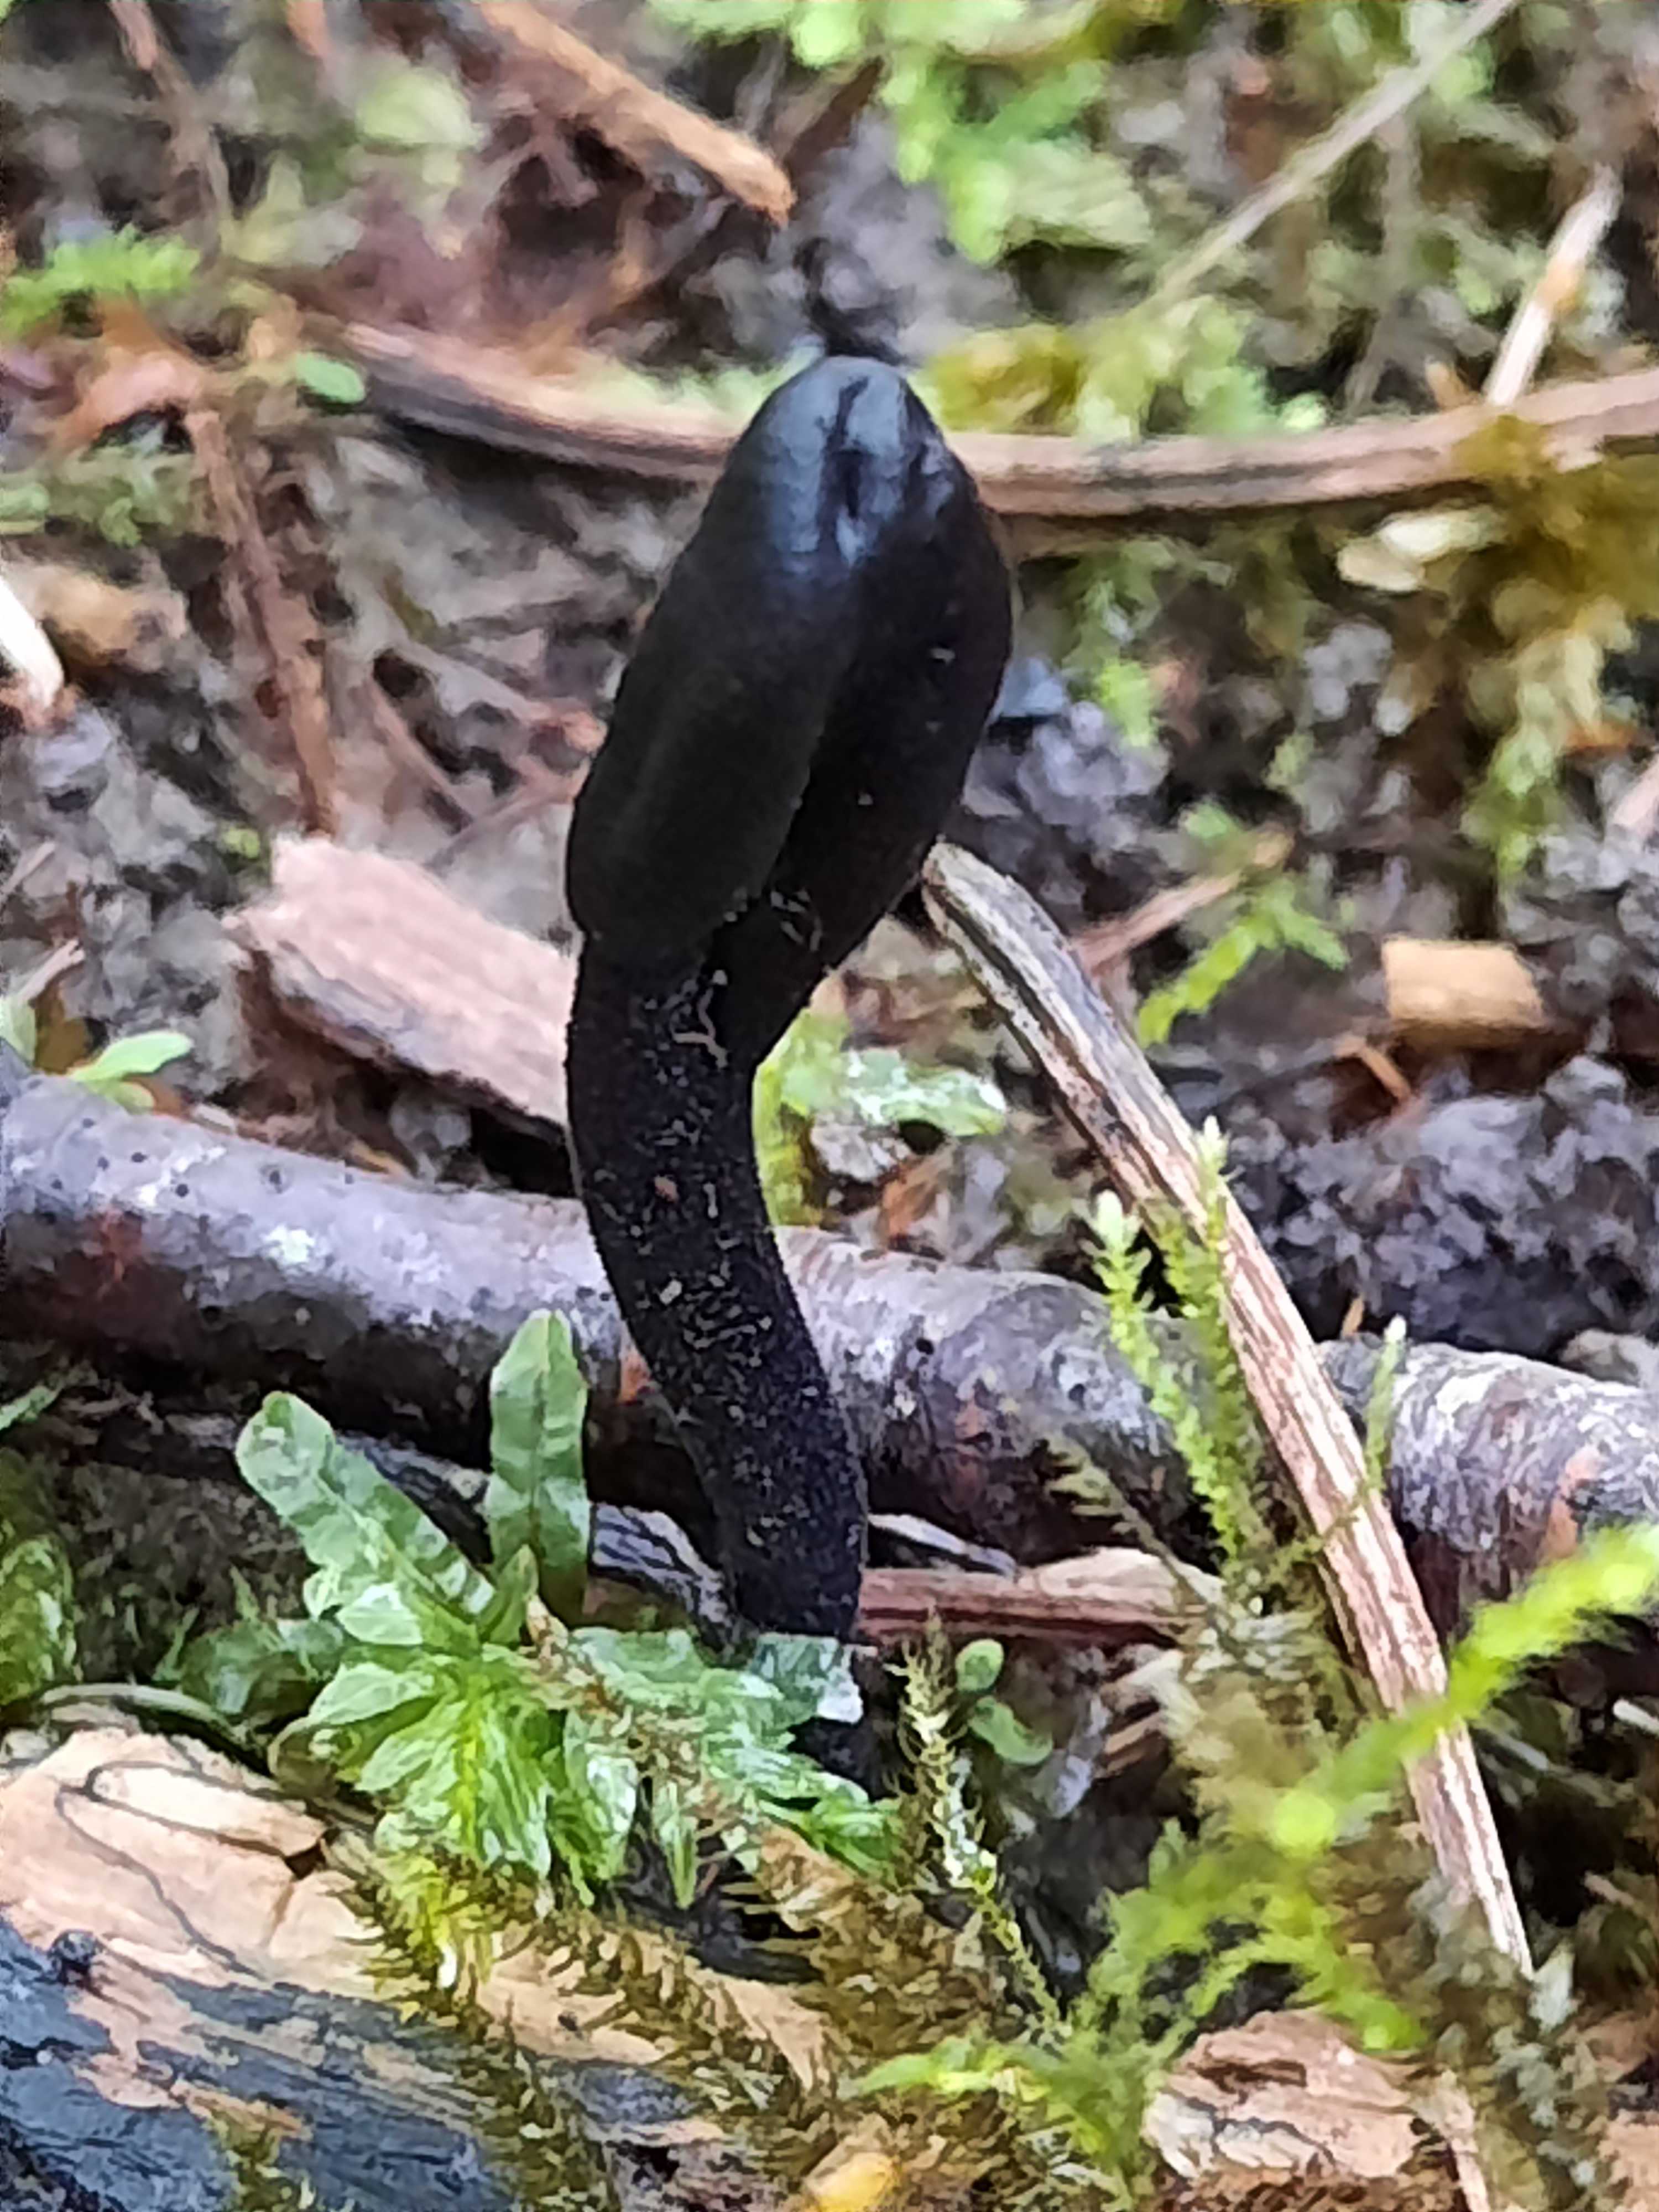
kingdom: Fungi
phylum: Ascomycota
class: Geoglossomycetes
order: Geoglossales
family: Geoglossaceae
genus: Trichoglossum
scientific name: Trichoglossum
